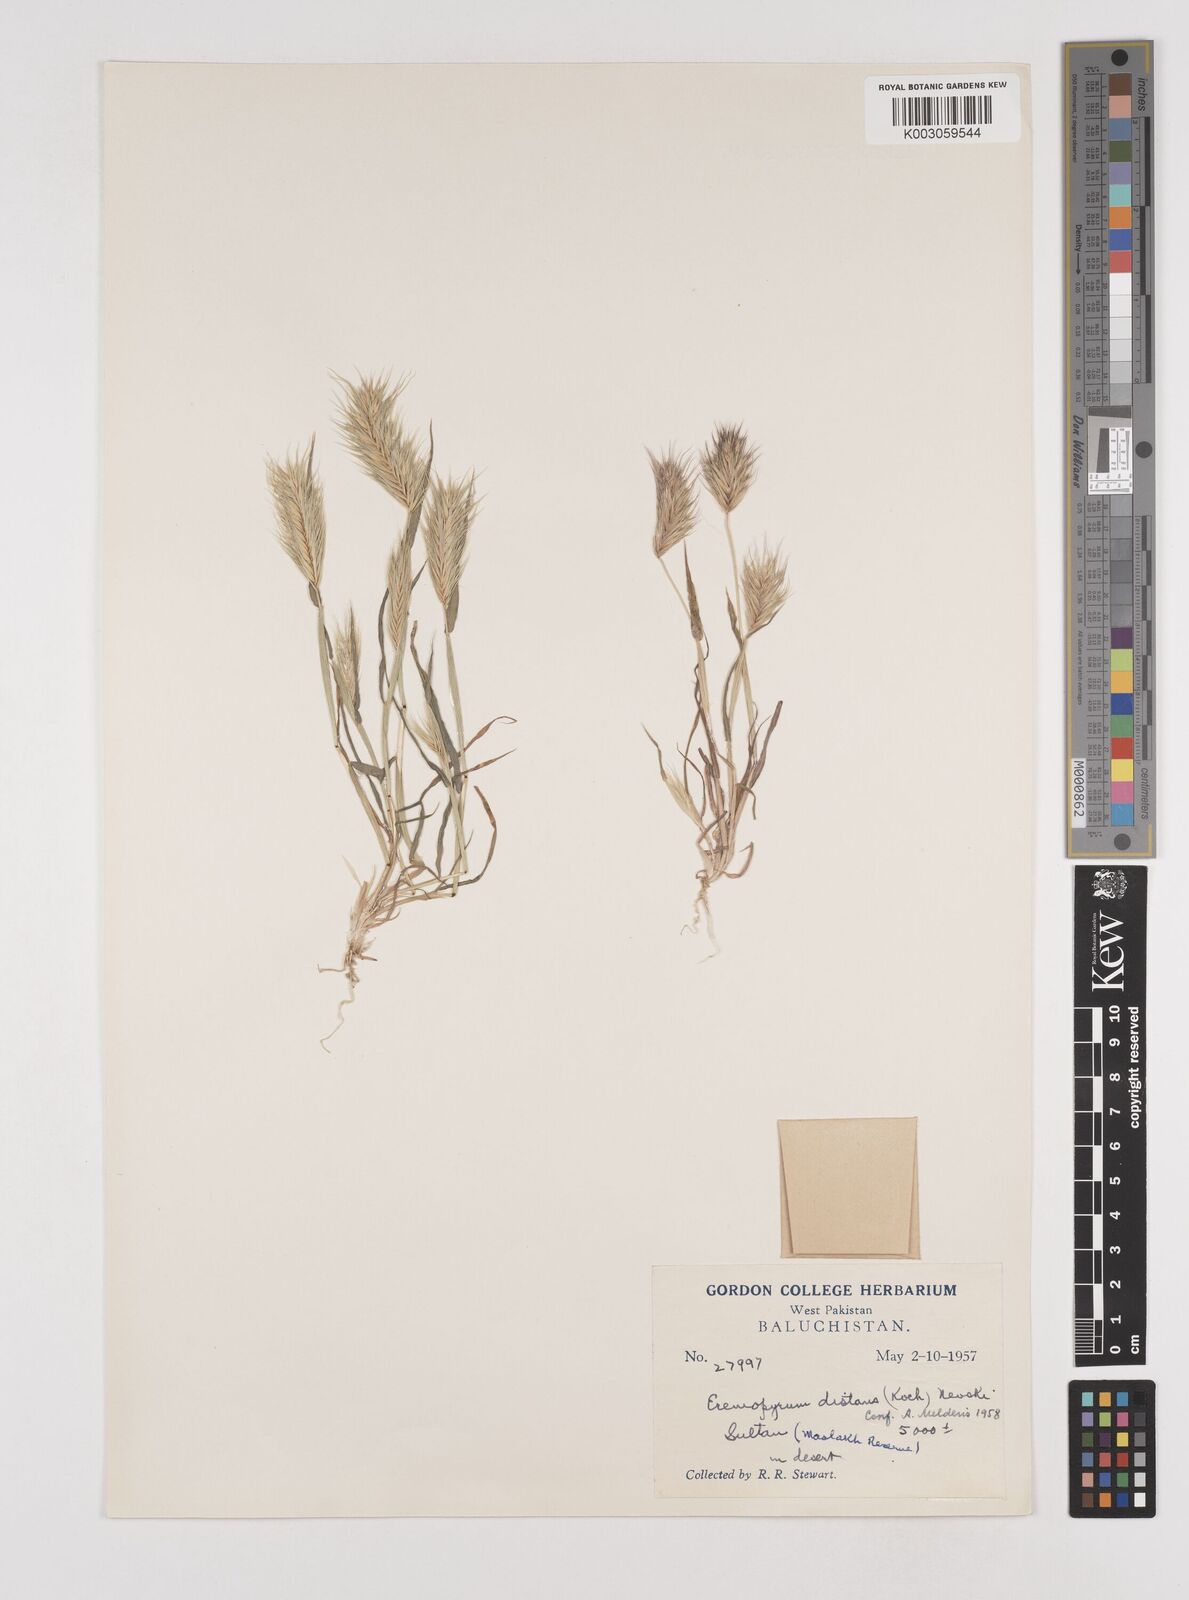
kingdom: Plantae
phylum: Tracheophyta
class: Liliopsida
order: Poales
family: Poaceae
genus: Eremopyrum
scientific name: Eremopyrum distans
